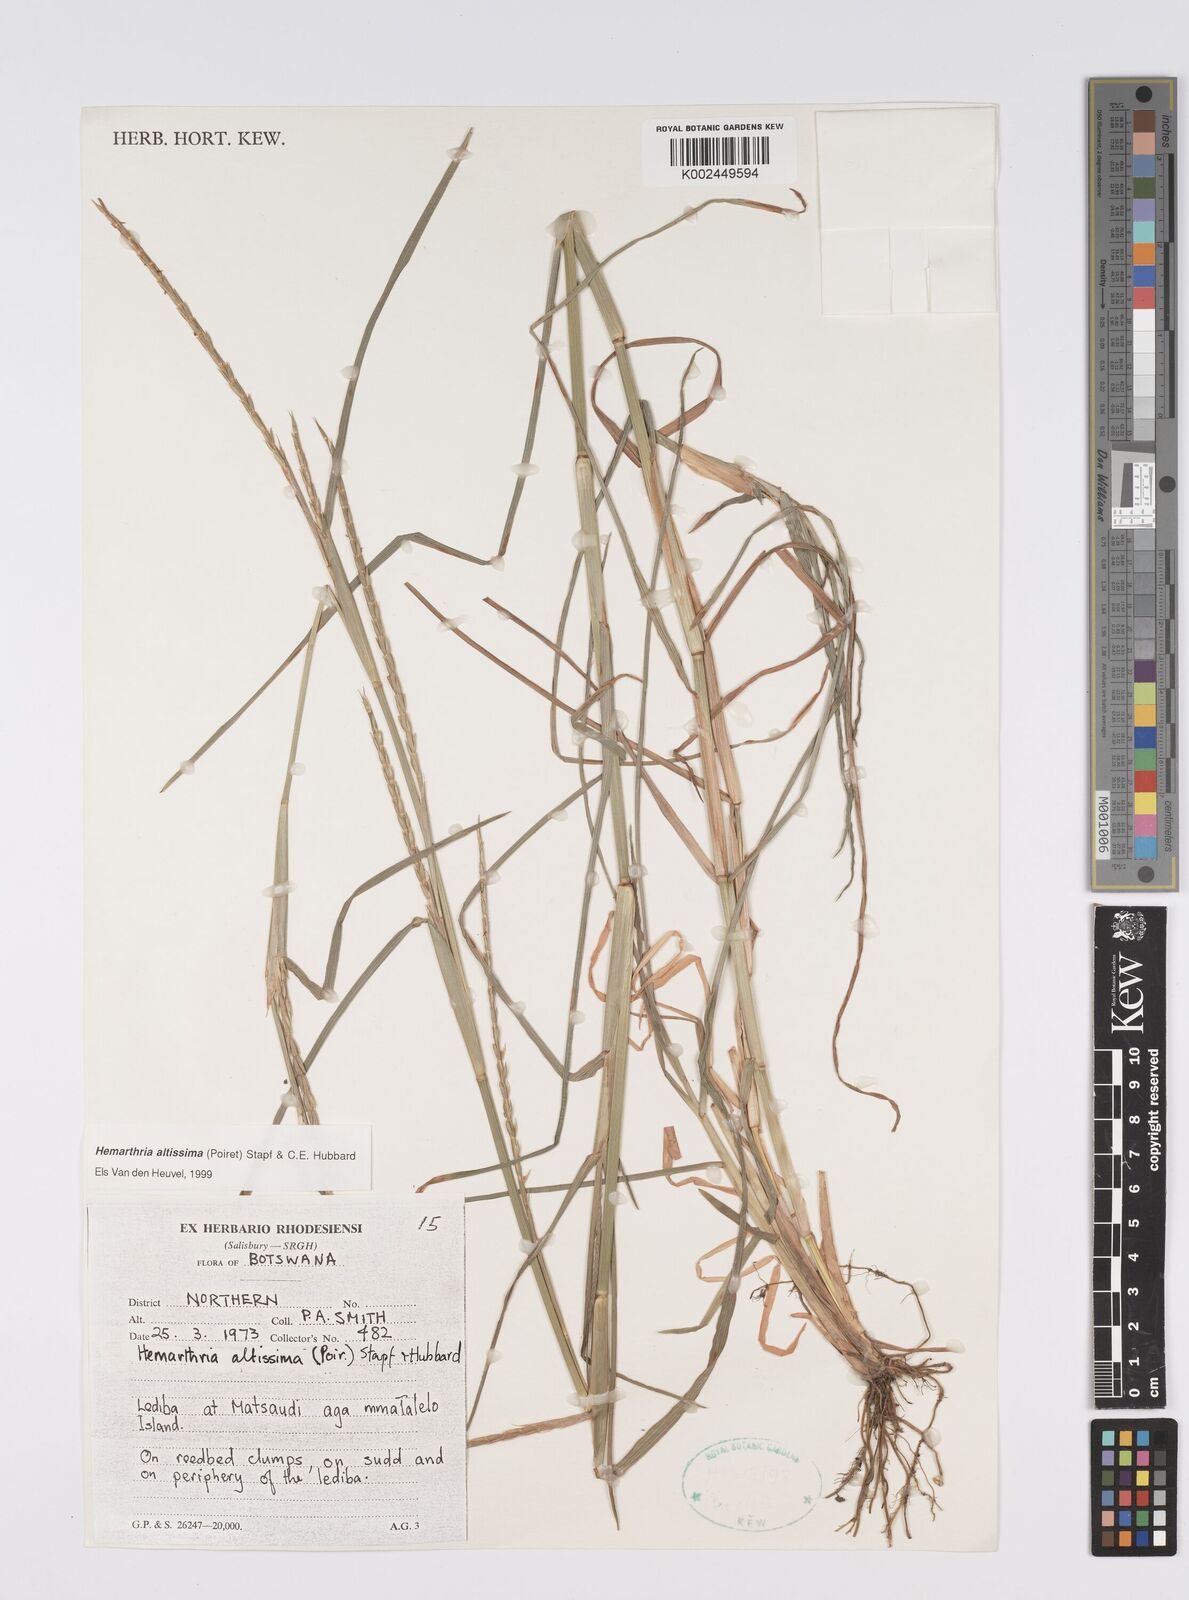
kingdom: Plantae
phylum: Tracheophyta
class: Liliopsida
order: Poales
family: Poaceae
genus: Hemarthria
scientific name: Hemarthria altissima
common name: African jointgrass
